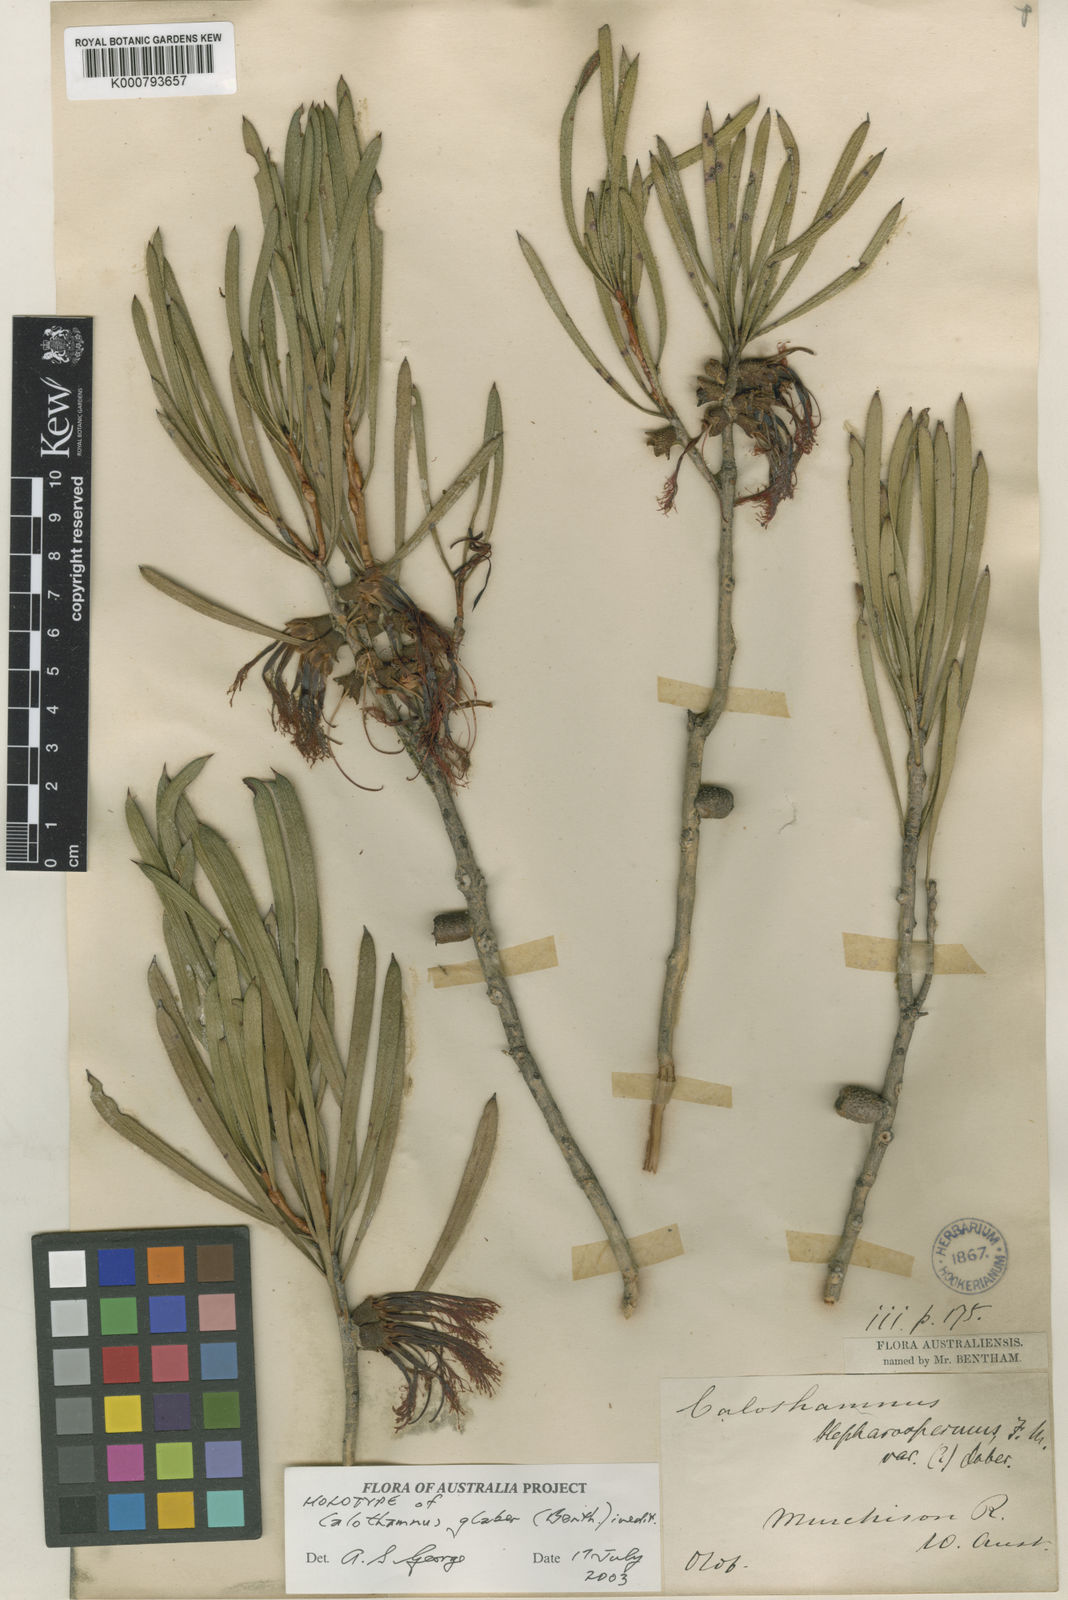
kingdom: Plantae
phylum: Tracheophyta
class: Magnoliopsida
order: Myrtales
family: Myrtaceae
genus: Melaleuca
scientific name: Melaleuca glabra
